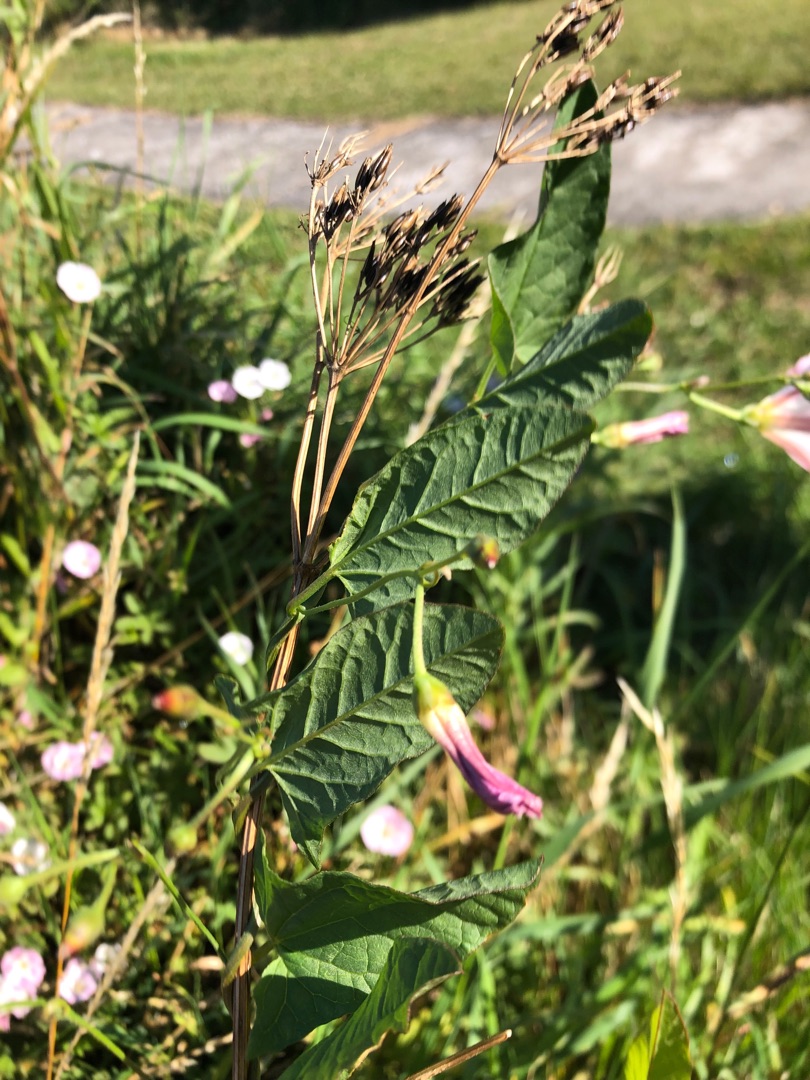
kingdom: Plantae
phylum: Tracheophyta
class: Magnoliopsida
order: Solanales
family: Convolvulaceae
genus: Convolvulus
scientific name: Convolvulus arvensis
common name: Ager-snerle
